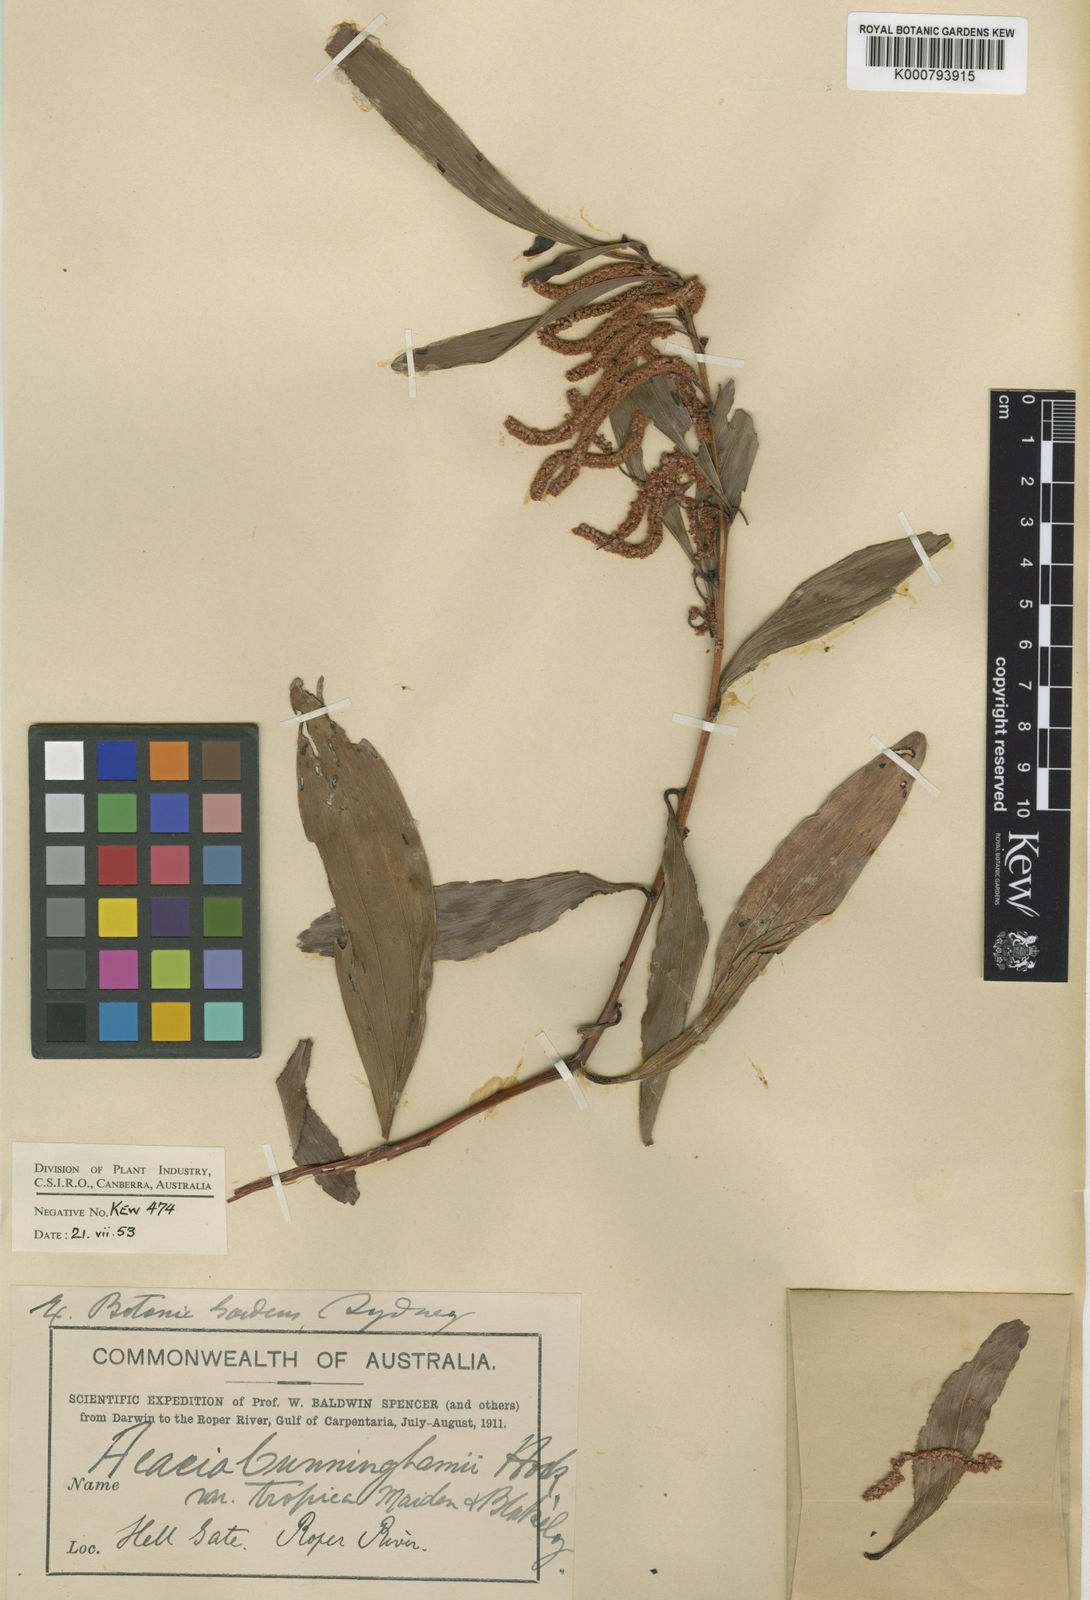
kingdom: Plantae
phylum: Tracheophyta
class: Magnoliopsida
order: Fabales
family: Fabaceae
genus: Acacia
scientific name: Acacia tropica
